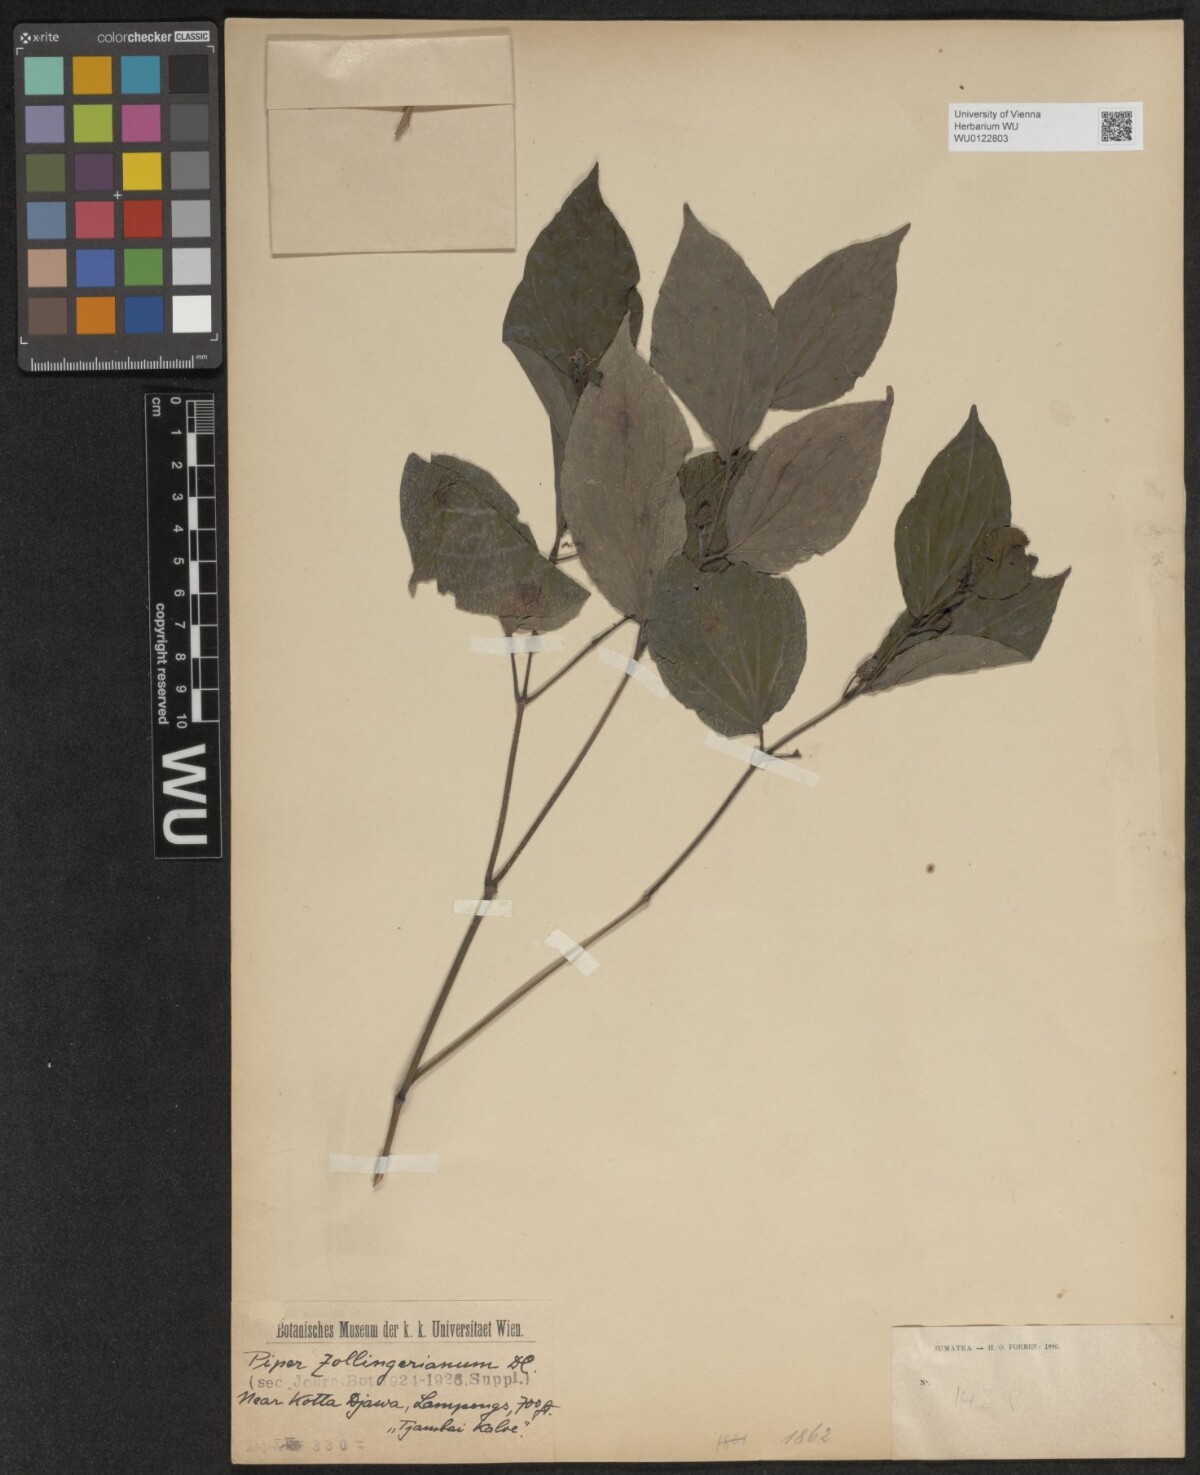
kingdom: Plantae
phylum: Tracheophyta
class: Magnoliopsida
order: Piperales
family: Piperaceae
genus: Piper
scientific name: Piper arcuatum
